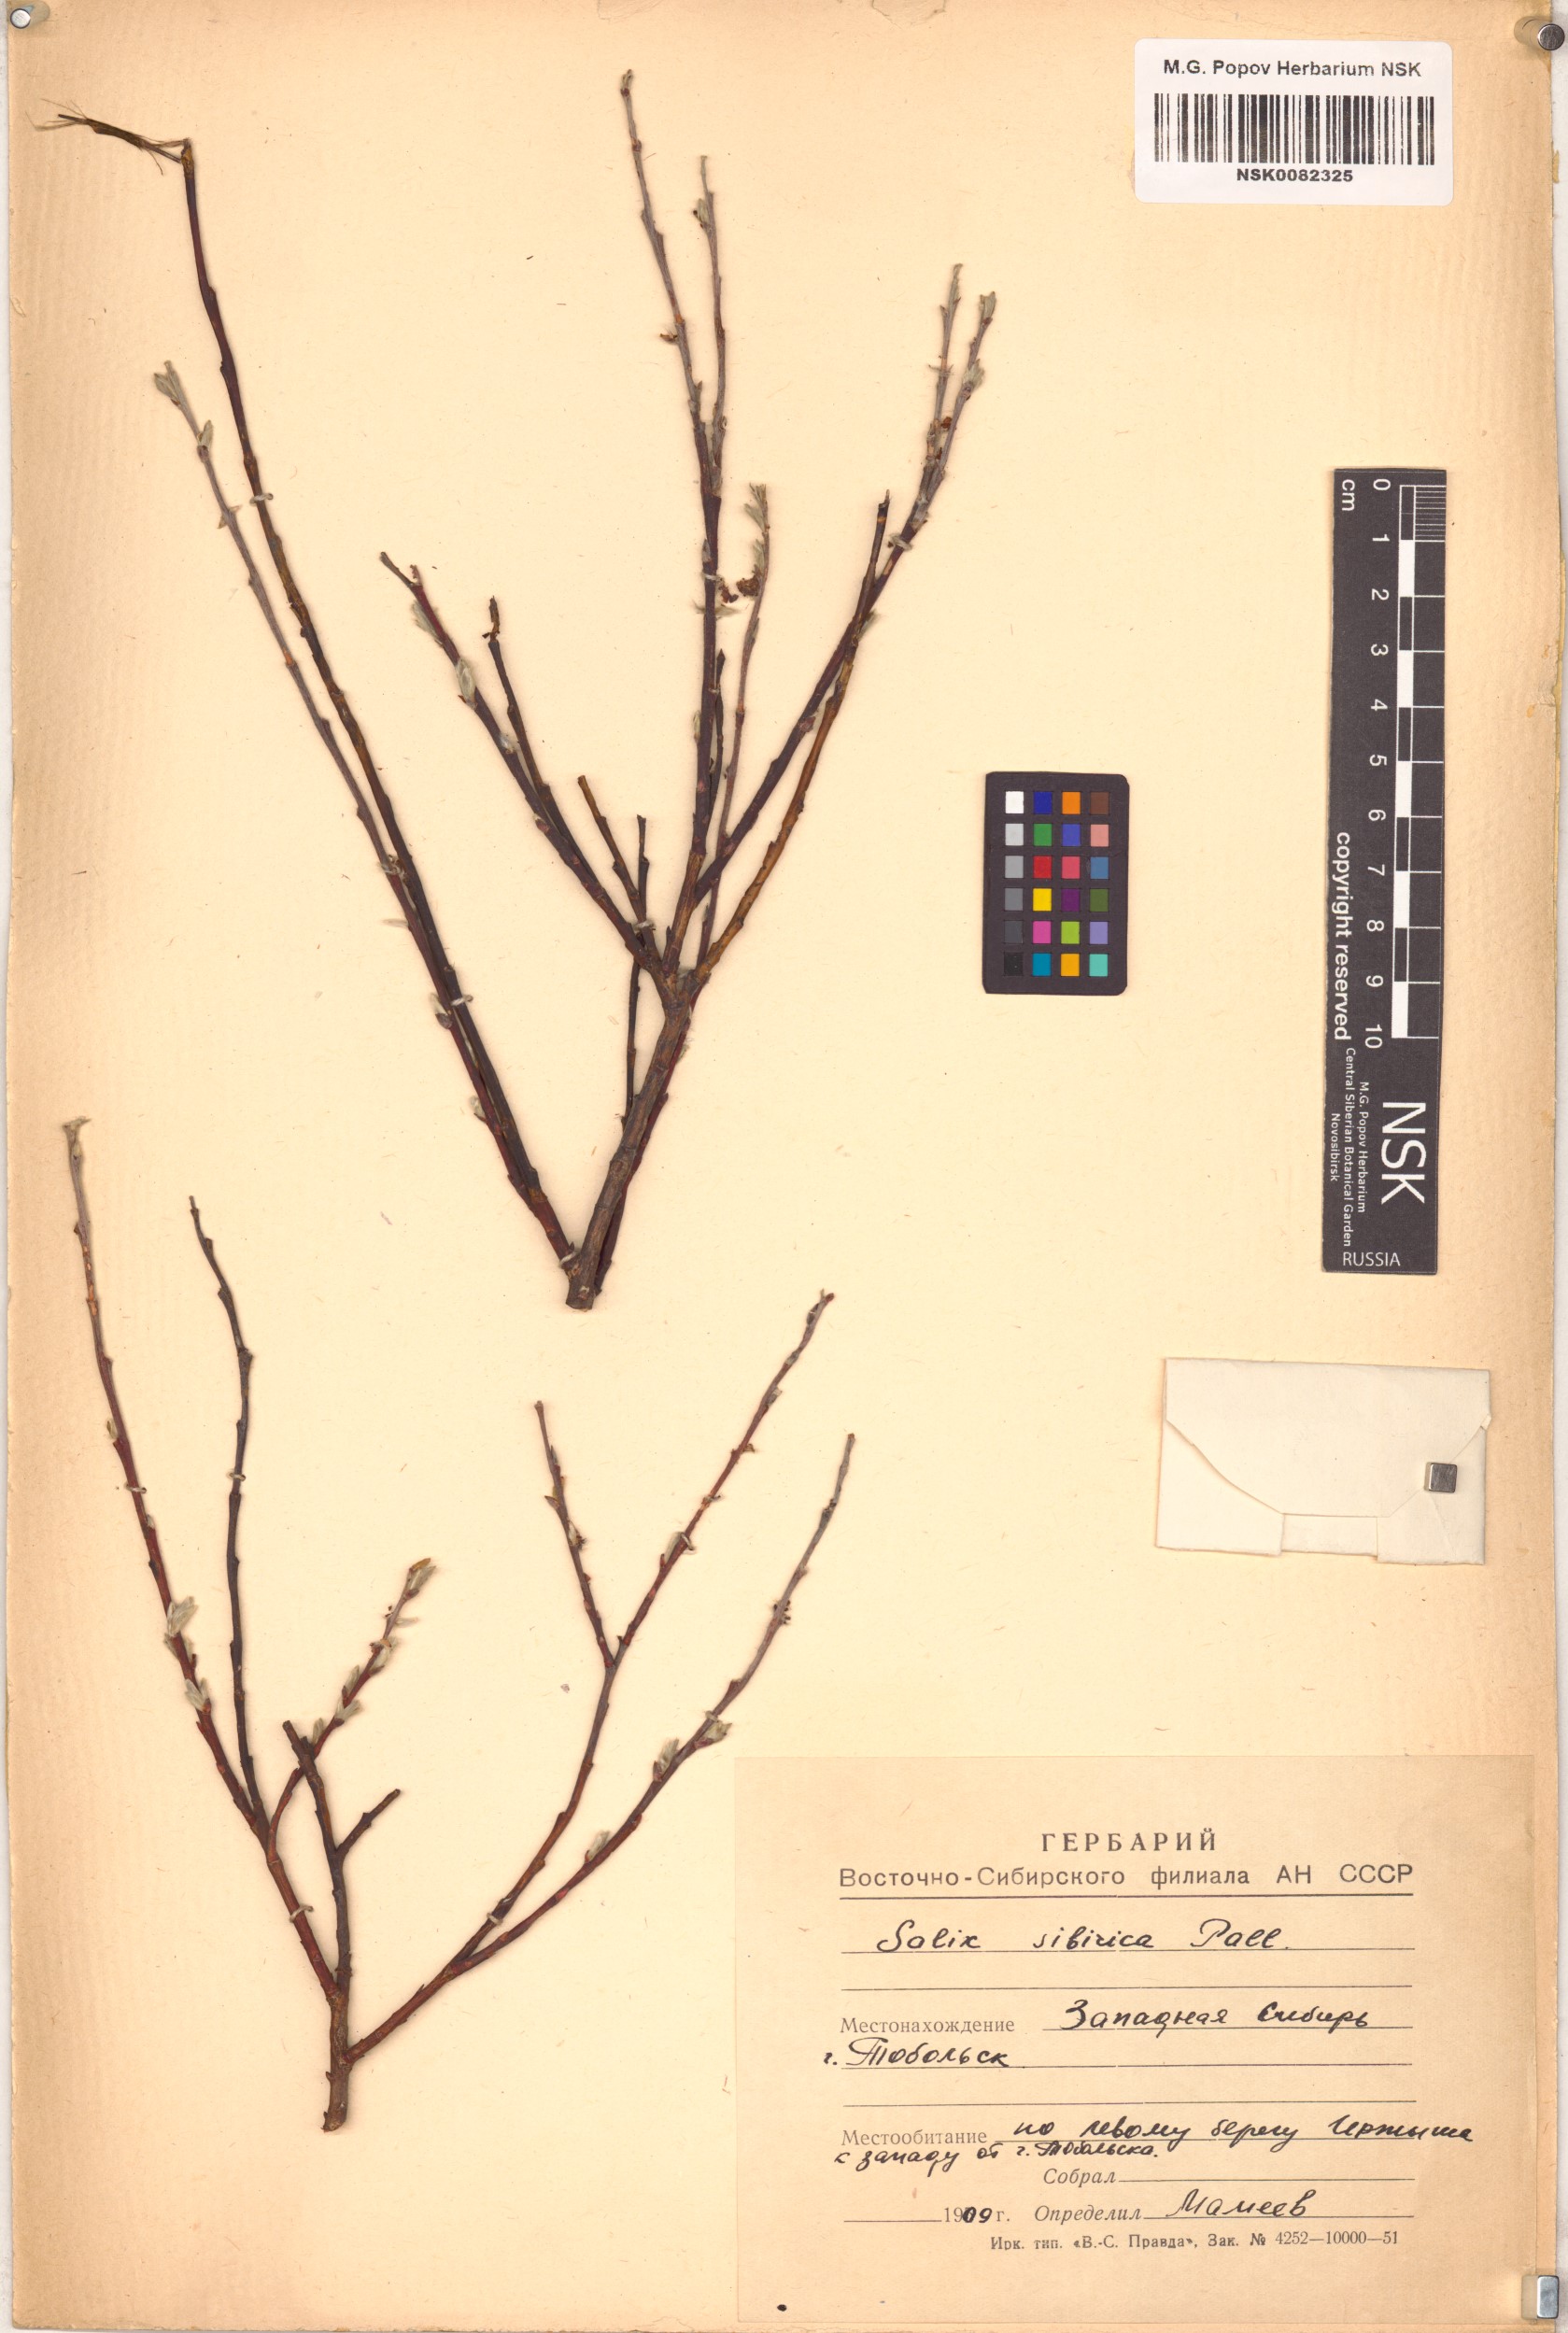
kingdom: Plantae
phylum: Tracheophyta
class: Magnoliopsida
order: Malpighiales
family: Salicaceae
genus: Salix
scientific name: Salix rosmarinifolia
